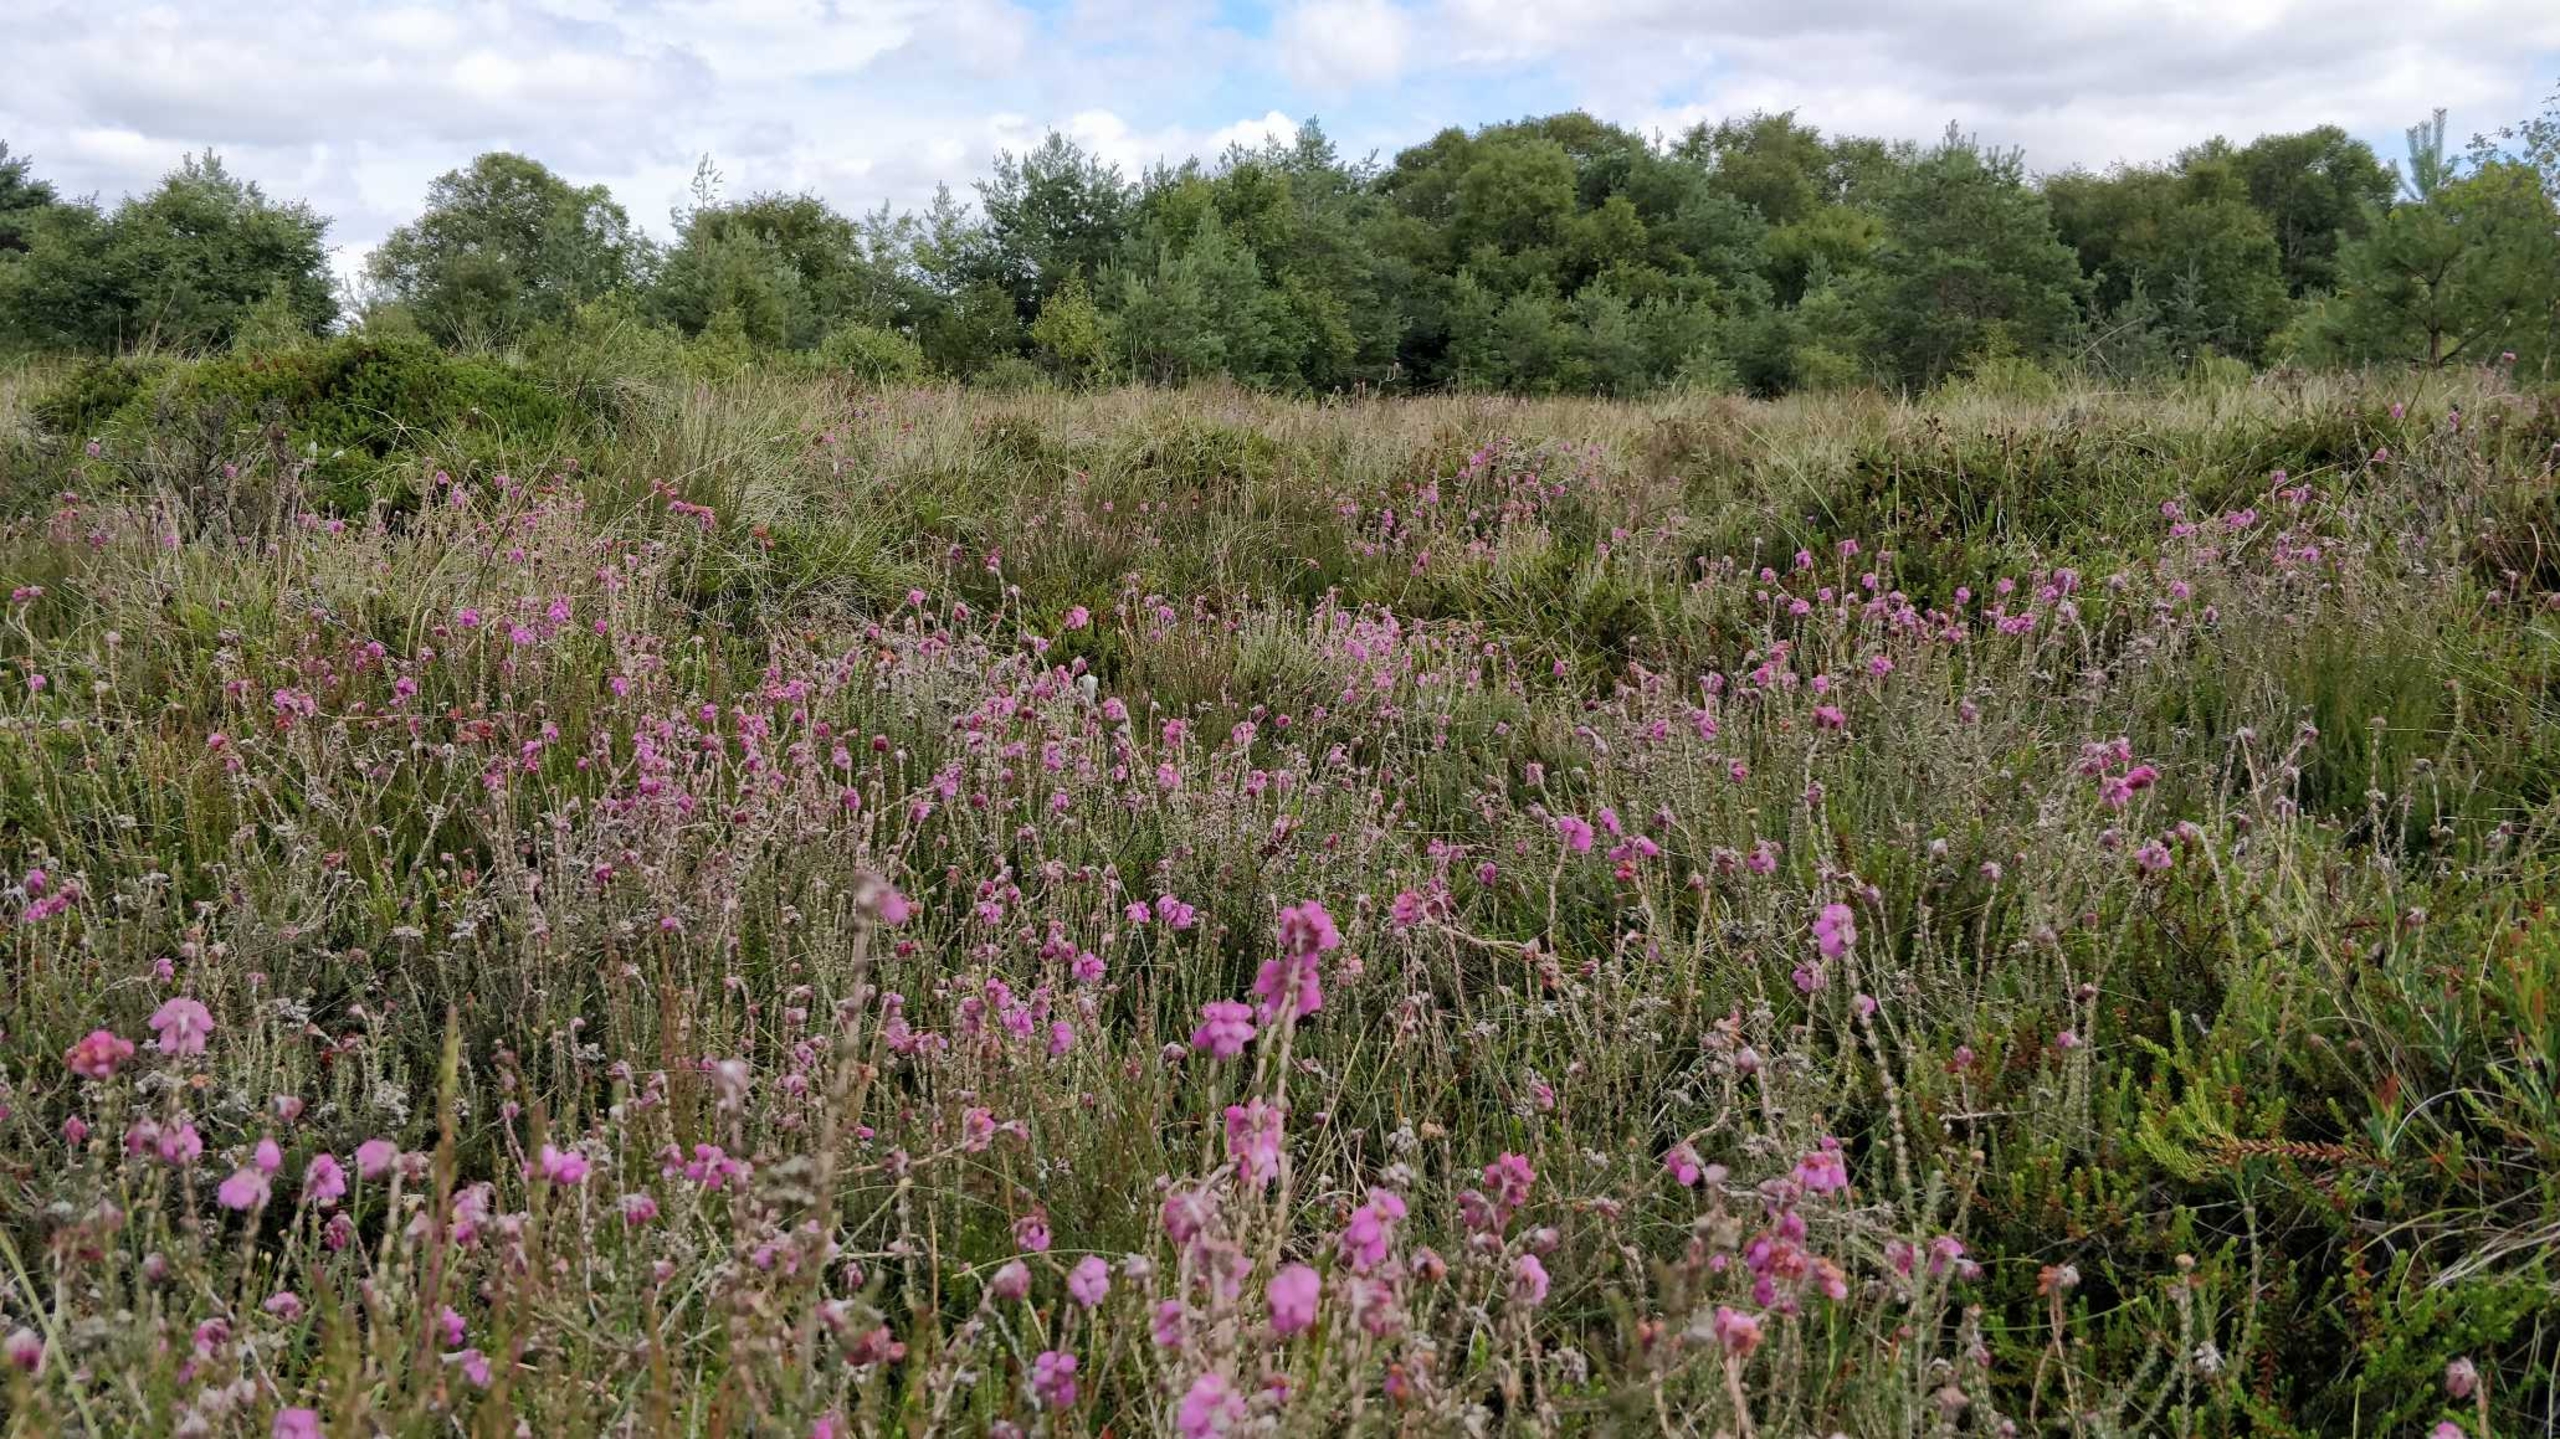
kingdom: Plantae
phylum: Tracheophyta
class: Magnoliopsida
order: Ericales
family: Ericaceae
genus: Erica
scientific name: Erica tetralix
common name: Klokkelyng
